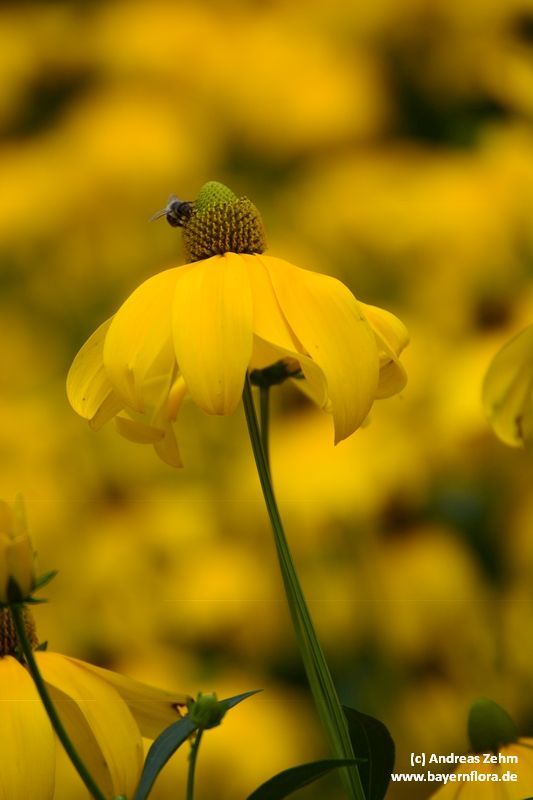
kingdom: Plantae
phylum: Tracheophyta
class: Magnoliopsida
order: Asterales
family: Asteraceae
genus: Rudbeckia
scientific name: Rudbeckia laciniata
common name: Coneflower
